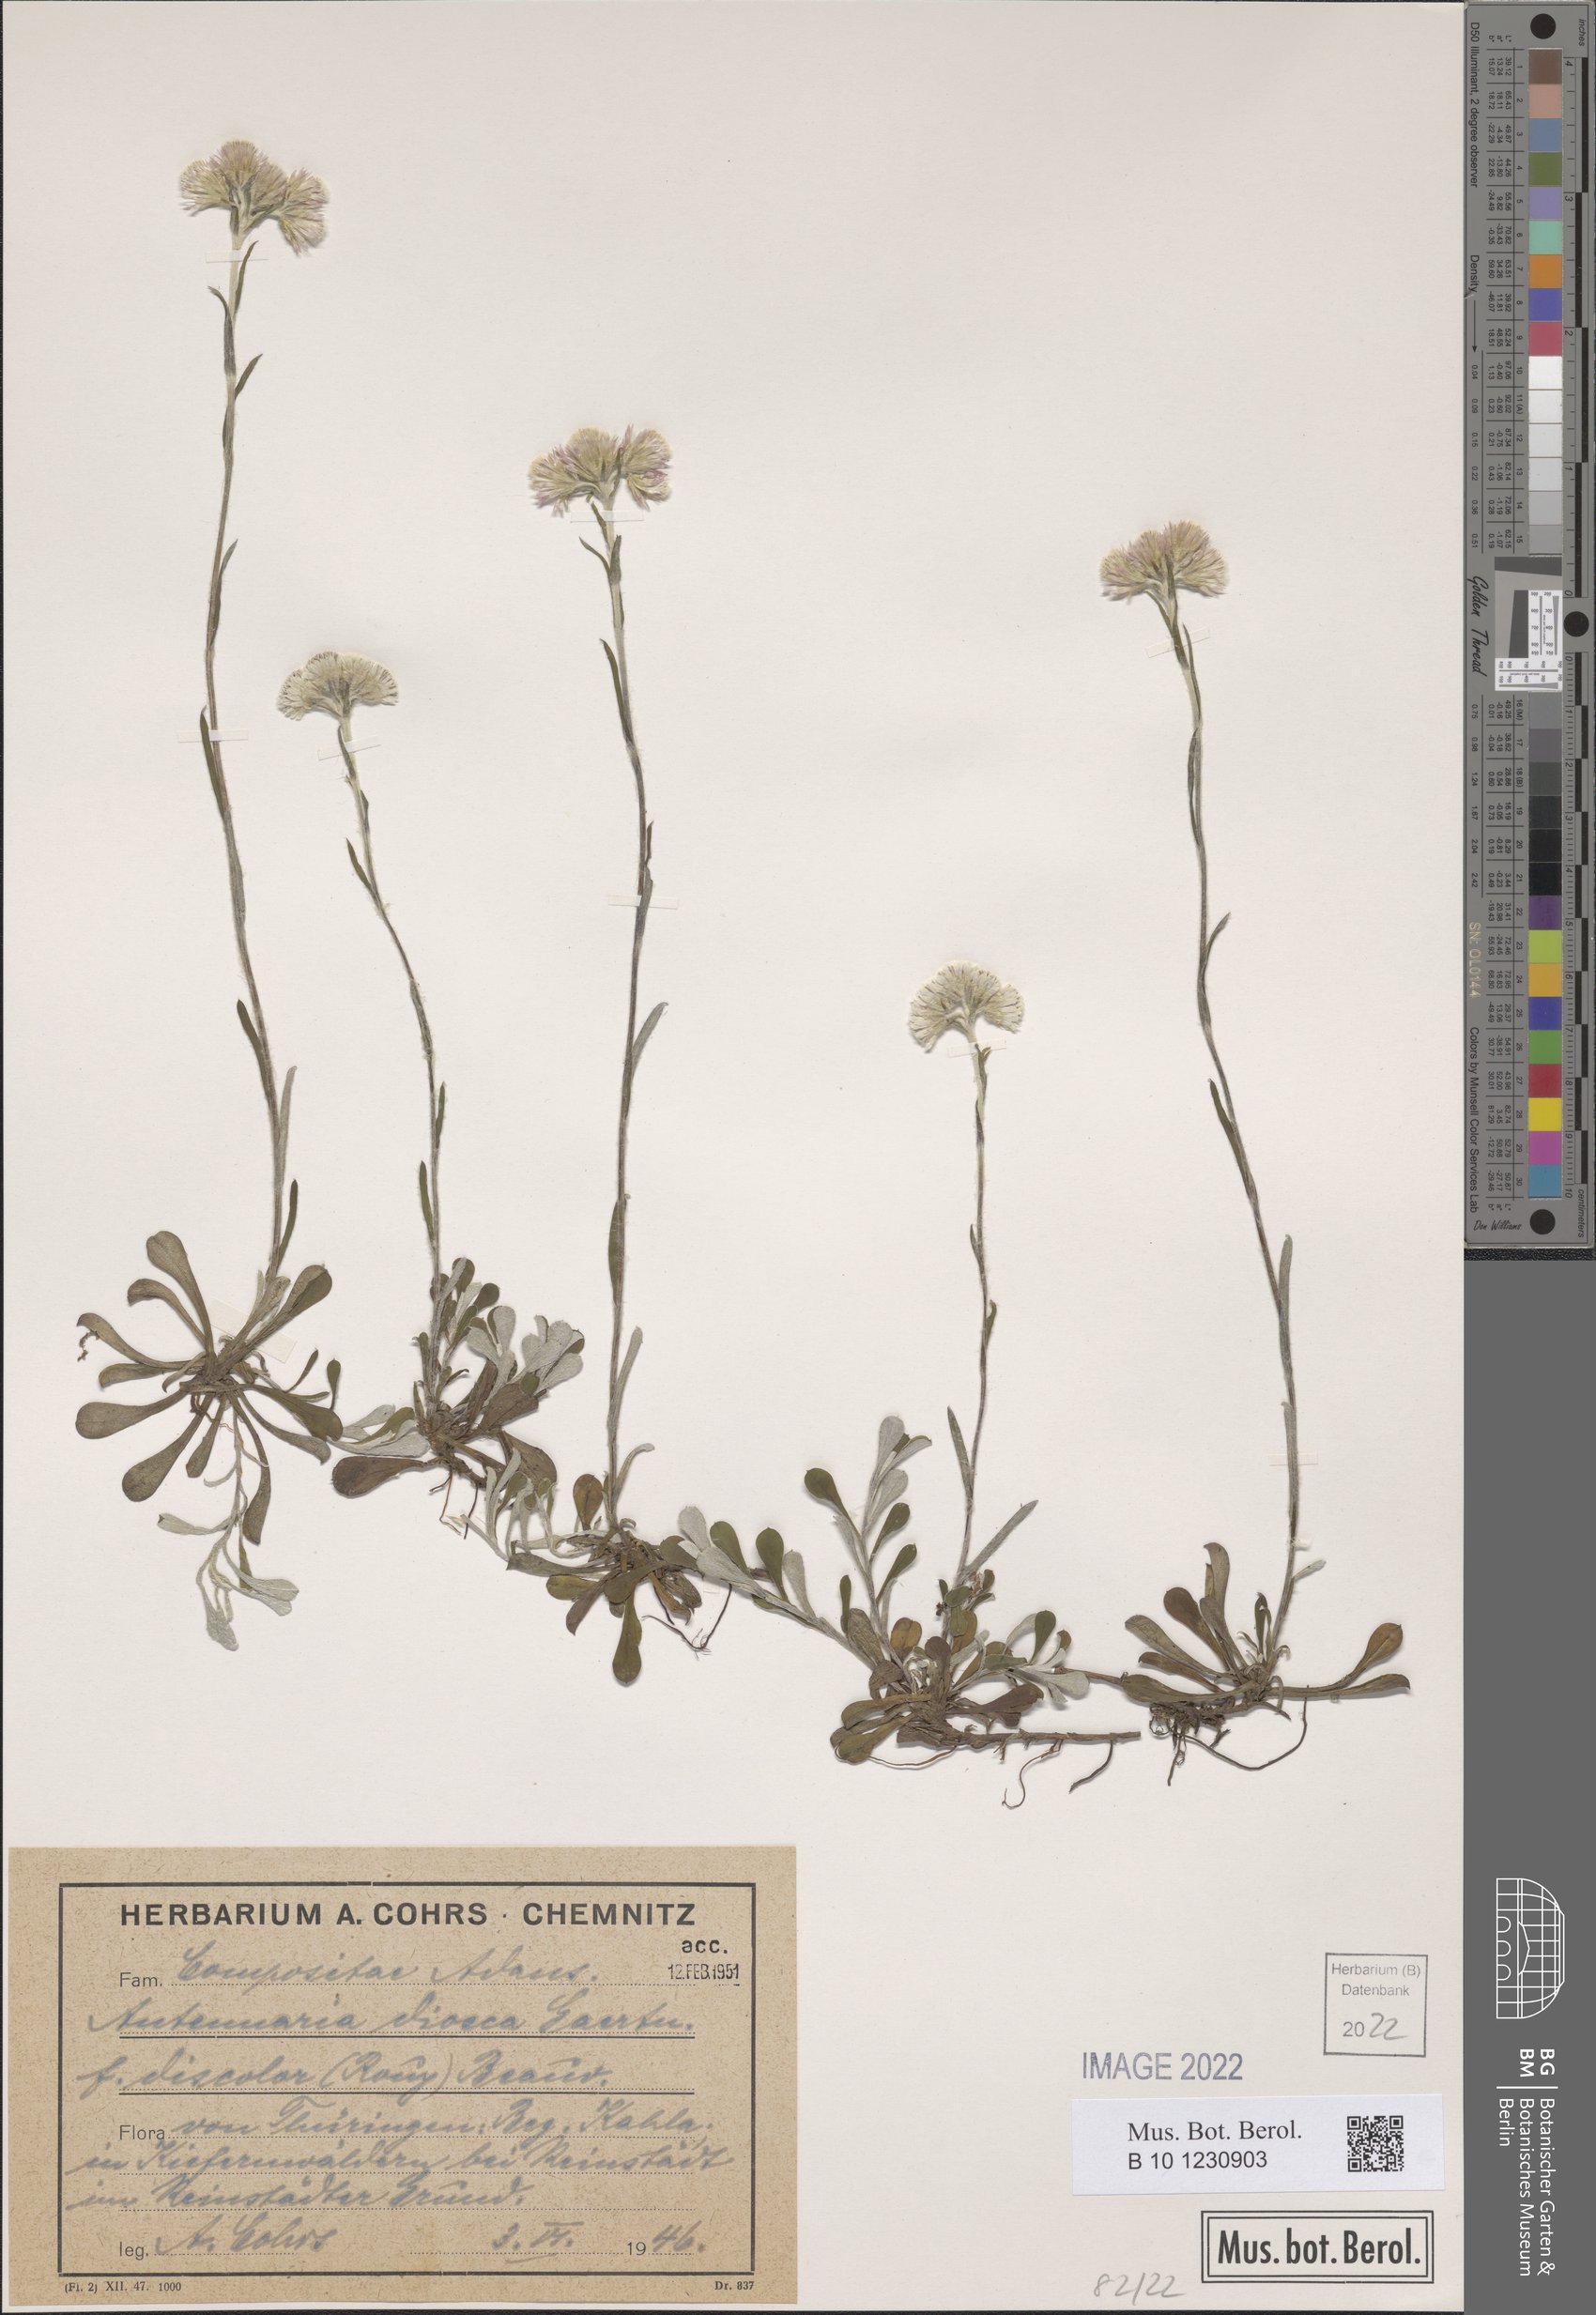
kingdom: Plantae
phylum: Tracheophyta
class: Magnoliopsida
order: Asterales
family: Asteraceae
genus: Antennaria
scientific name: Antennaria dioica
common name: Mountain everlasting
